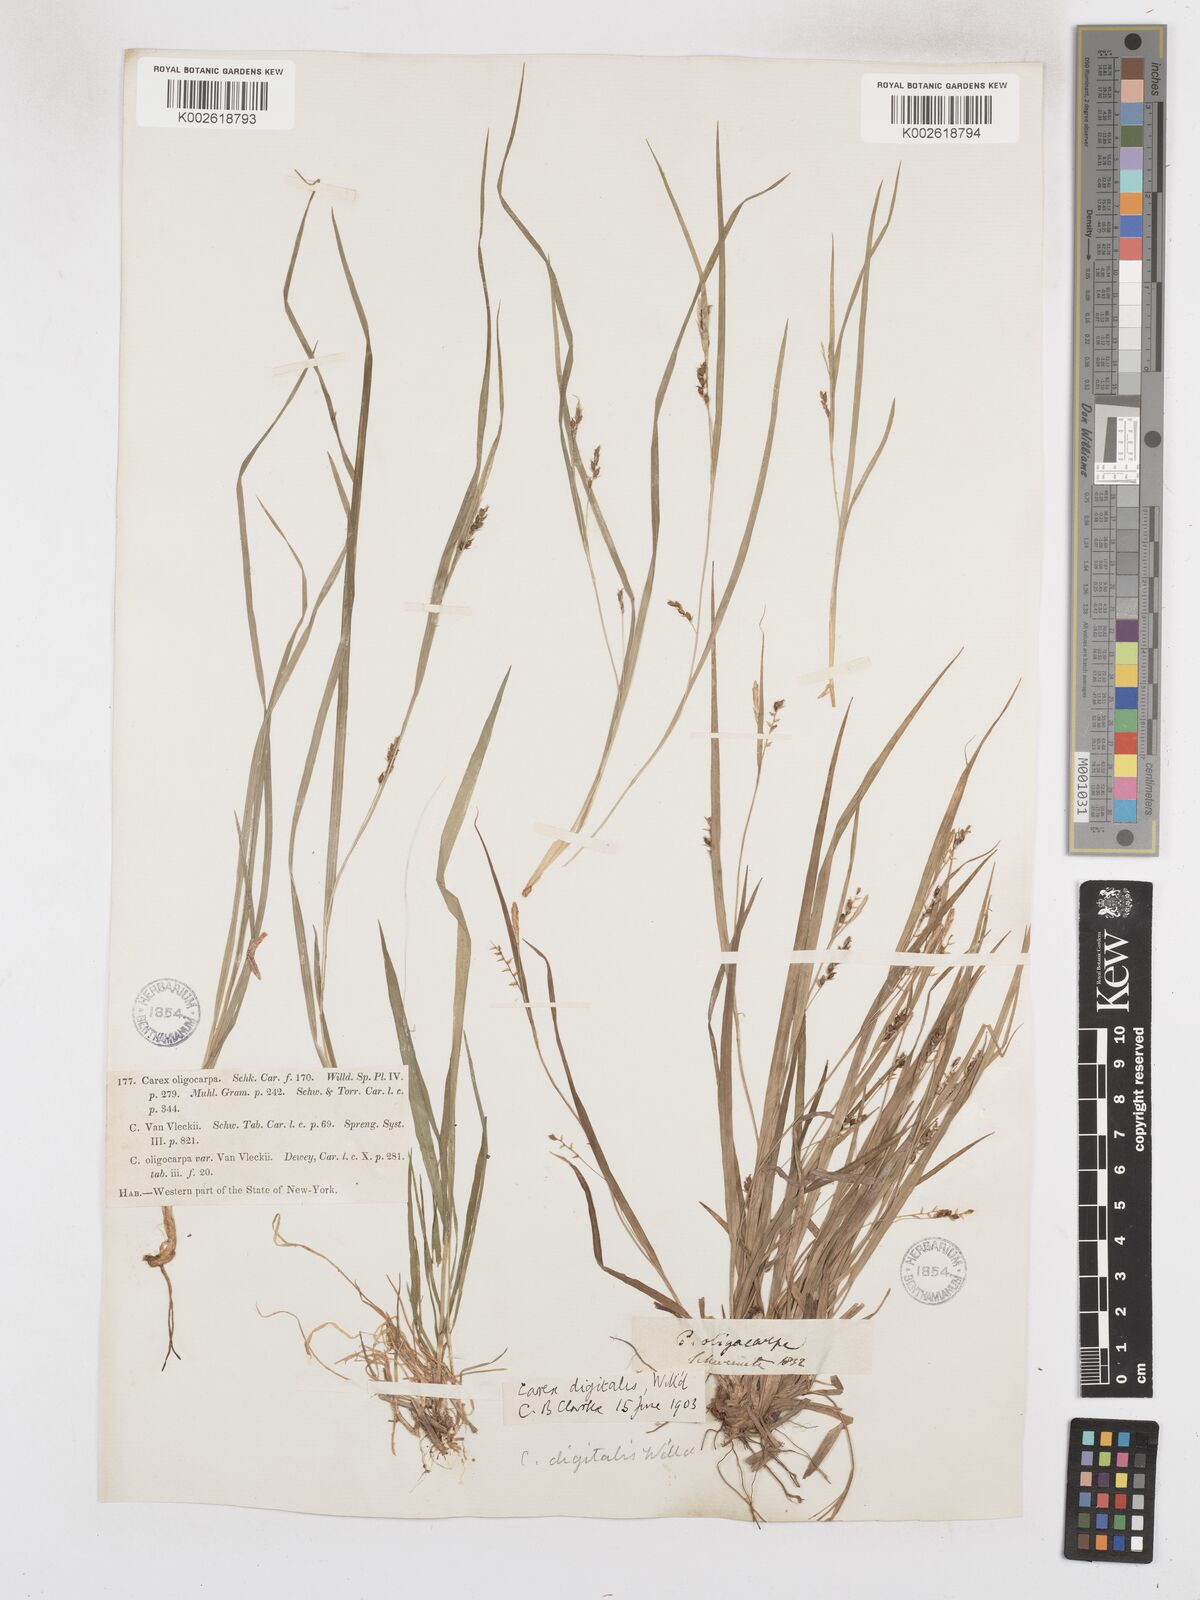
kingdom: Plantae
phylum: Tracheophyta
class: Liliopsida
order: Poales
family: Cyperaceae
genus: Carex
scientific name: Carex digitalis
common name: Slender wood sedge
